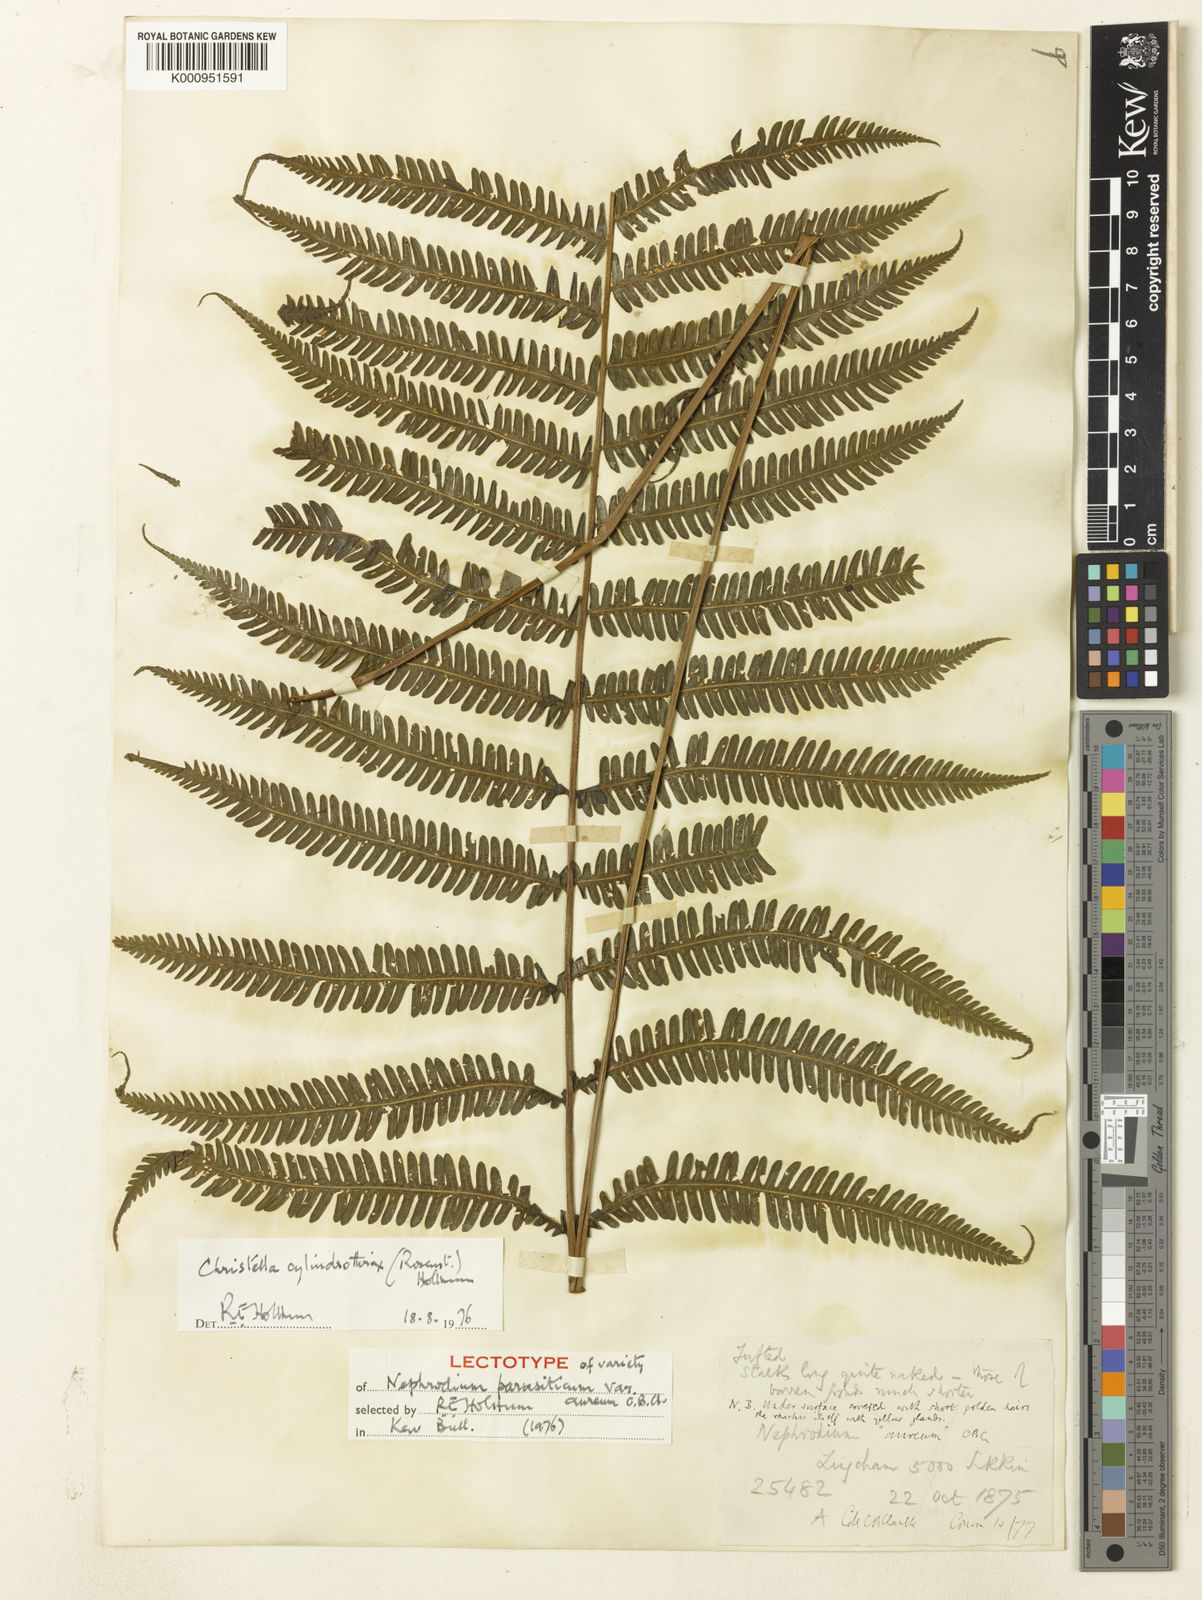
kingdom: Plantae
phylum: Tracheophyta
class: Polypodiopsida
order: Polypodiales
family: Thelypteridaceae
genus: Christella
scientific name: Christella clarkei
